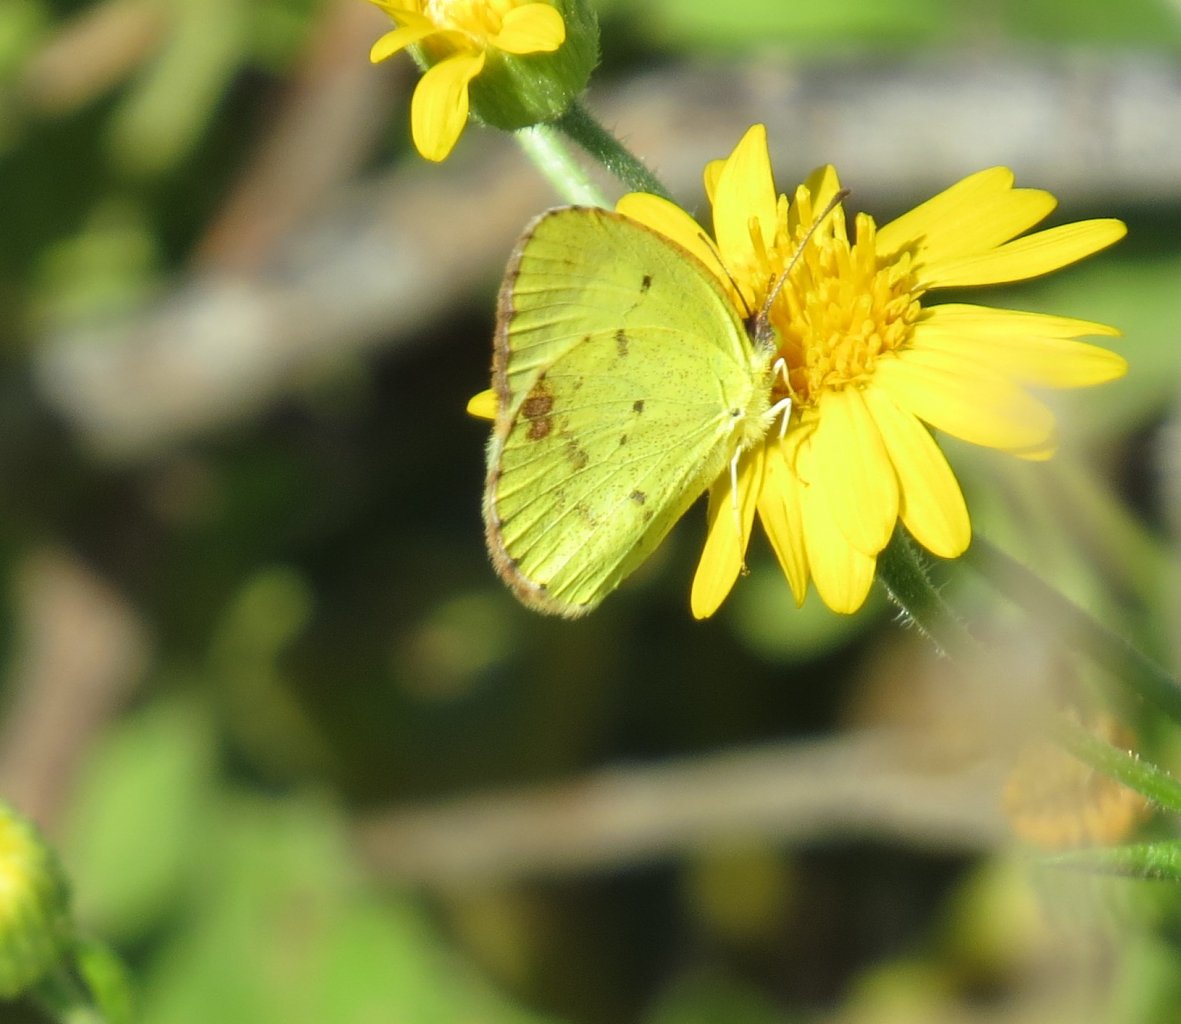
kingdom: Animalia
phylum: Arthropoda
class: Insecta
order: Lepidoptera
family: Pieridae
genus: Pyrisitia
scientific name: Pyrisitia lisa
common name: Little Yellow
